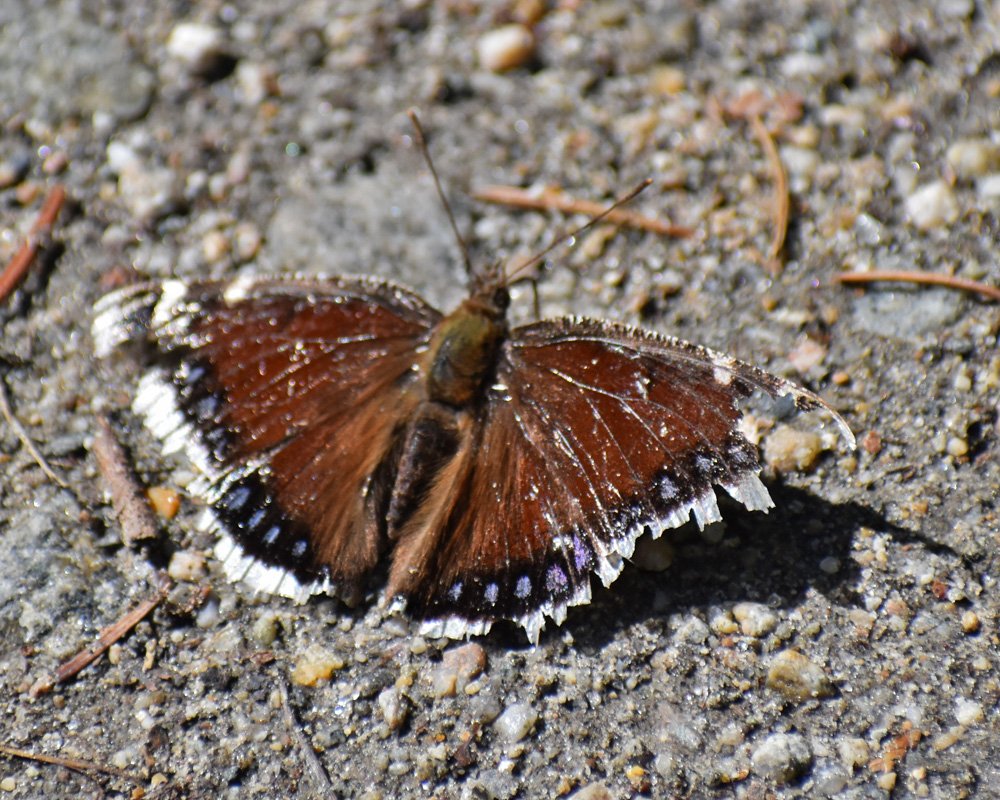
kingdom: Animalia
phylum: Arthropoda
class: Insecta
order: Lepidoptera
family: Nymphalidae
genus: Nymphalis
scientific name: Nymphalis antiopa
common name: Mourning Cloak
